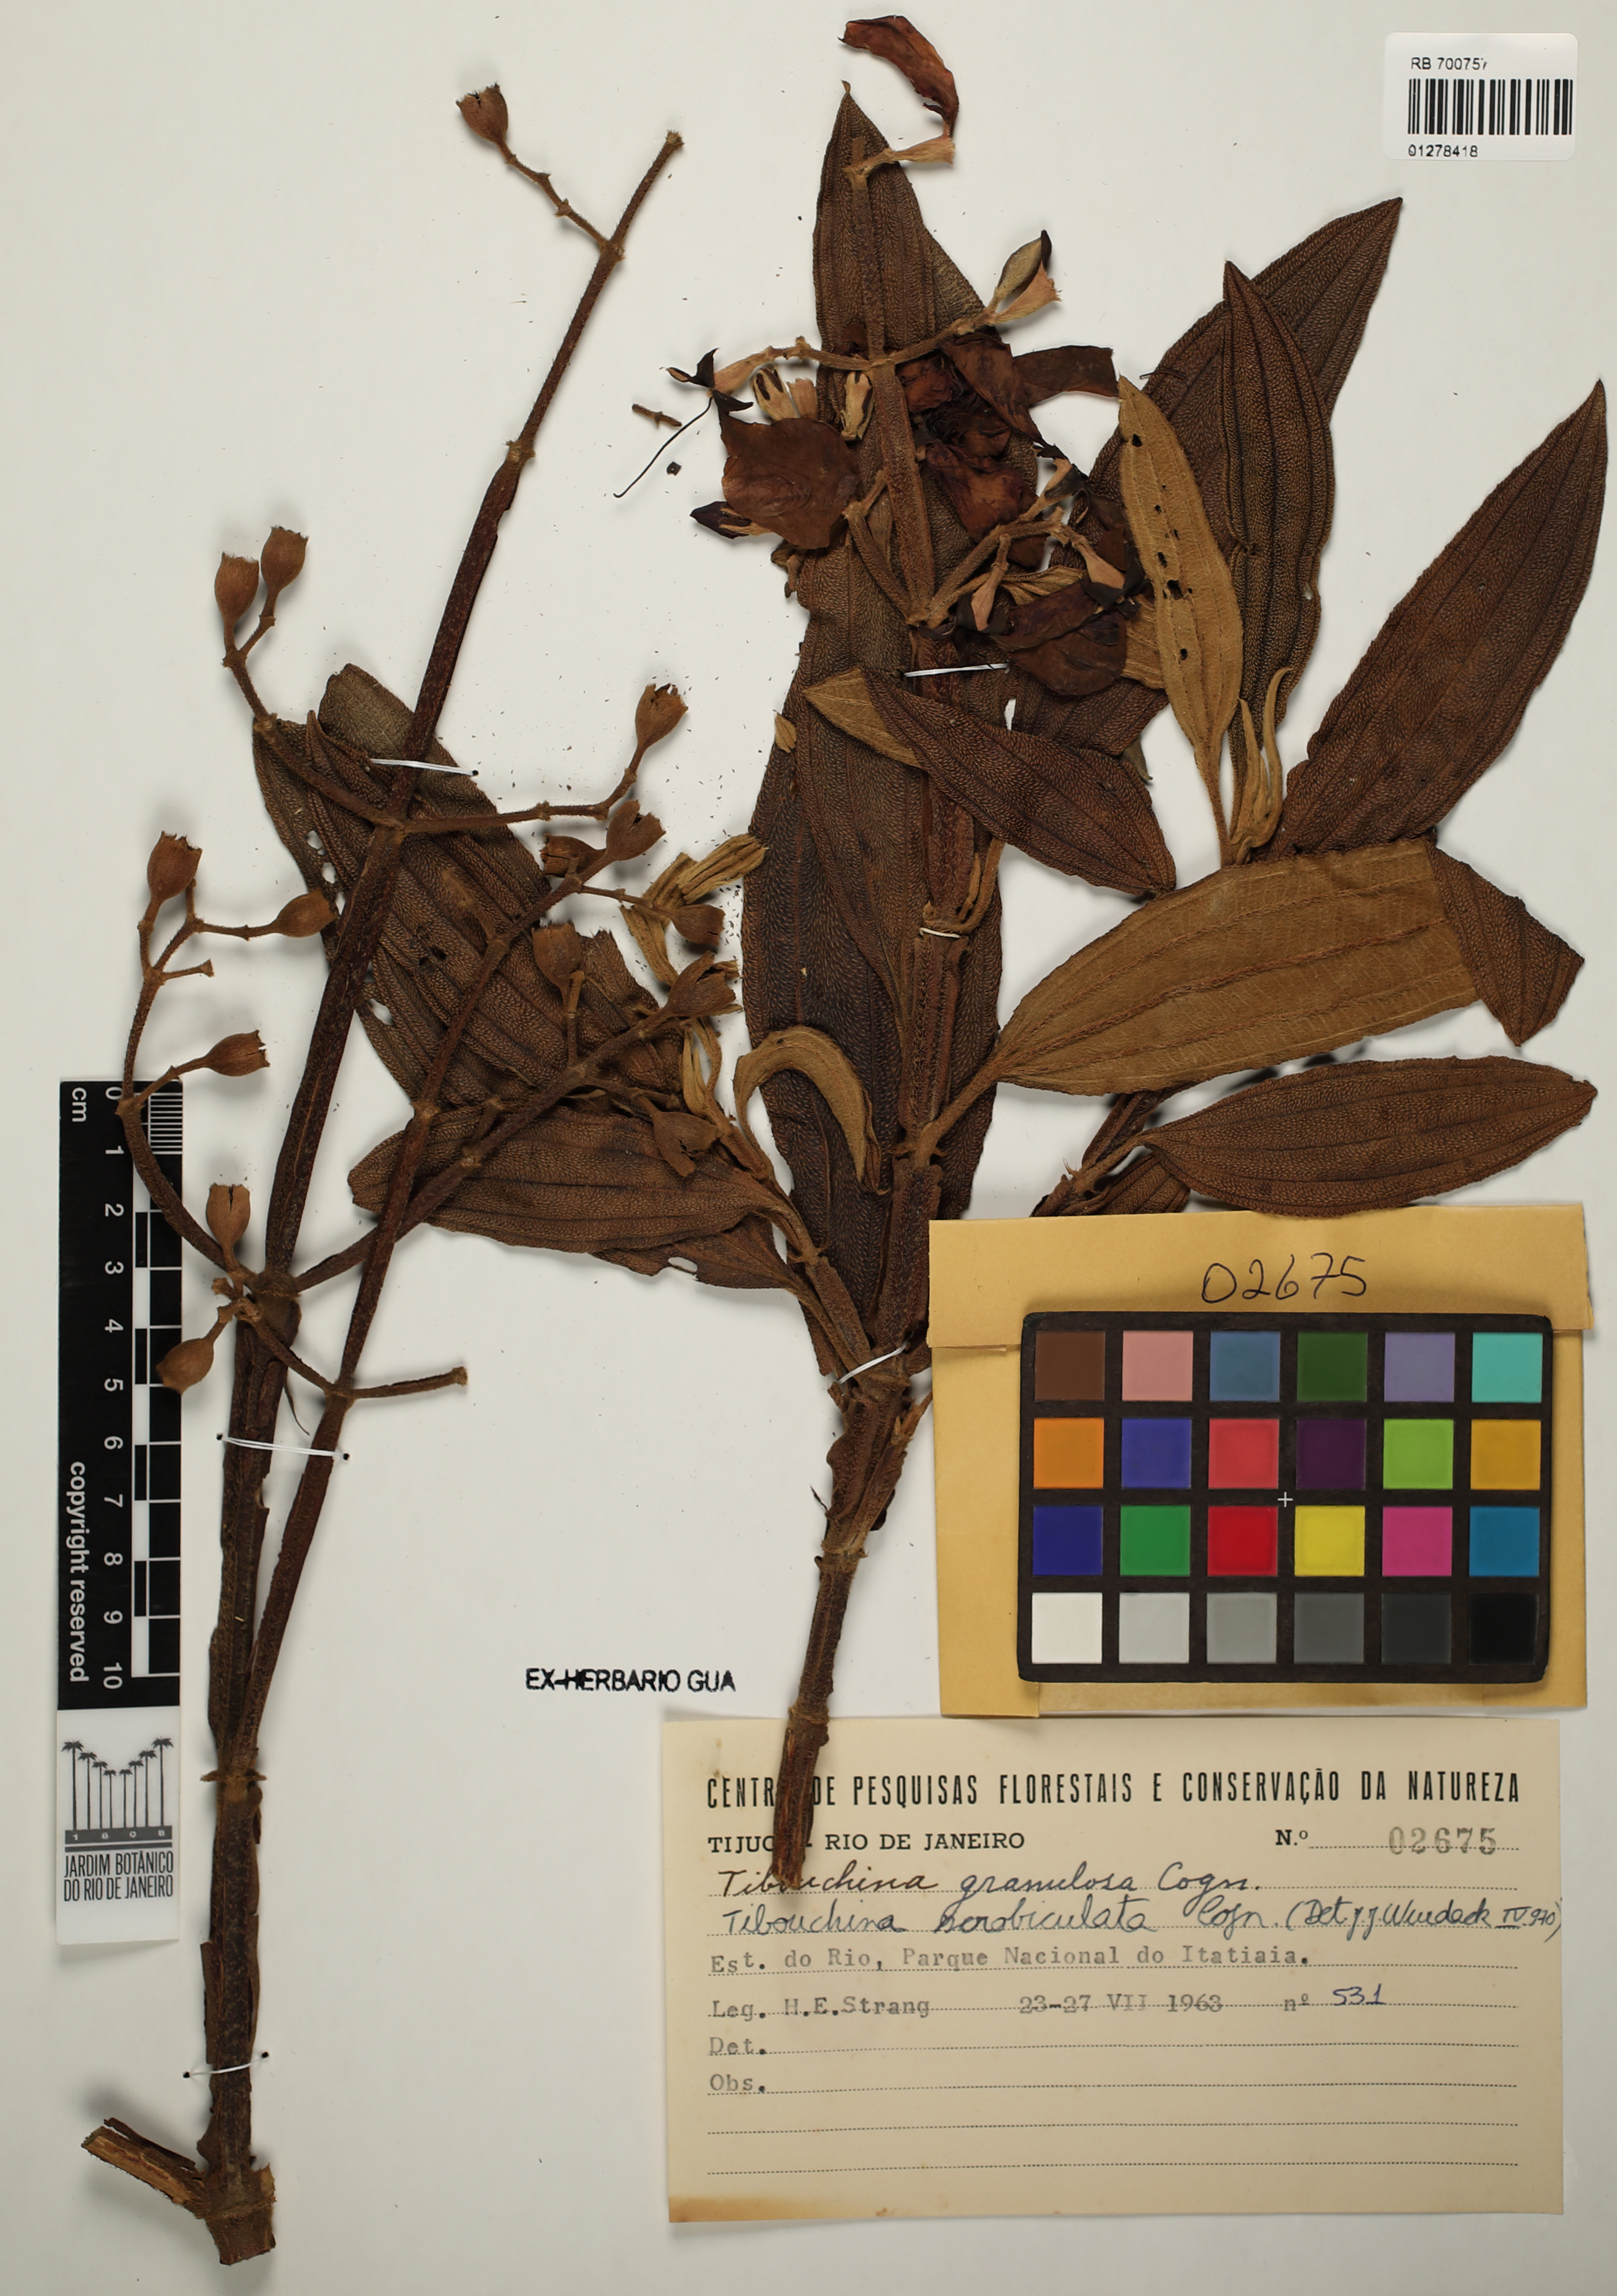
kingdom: Plantae
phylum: Tracheophyta
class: Magnoliopsida
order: Myrtales
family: Melastomataceae
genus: Pleroma
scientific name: Pleroma estrellense
